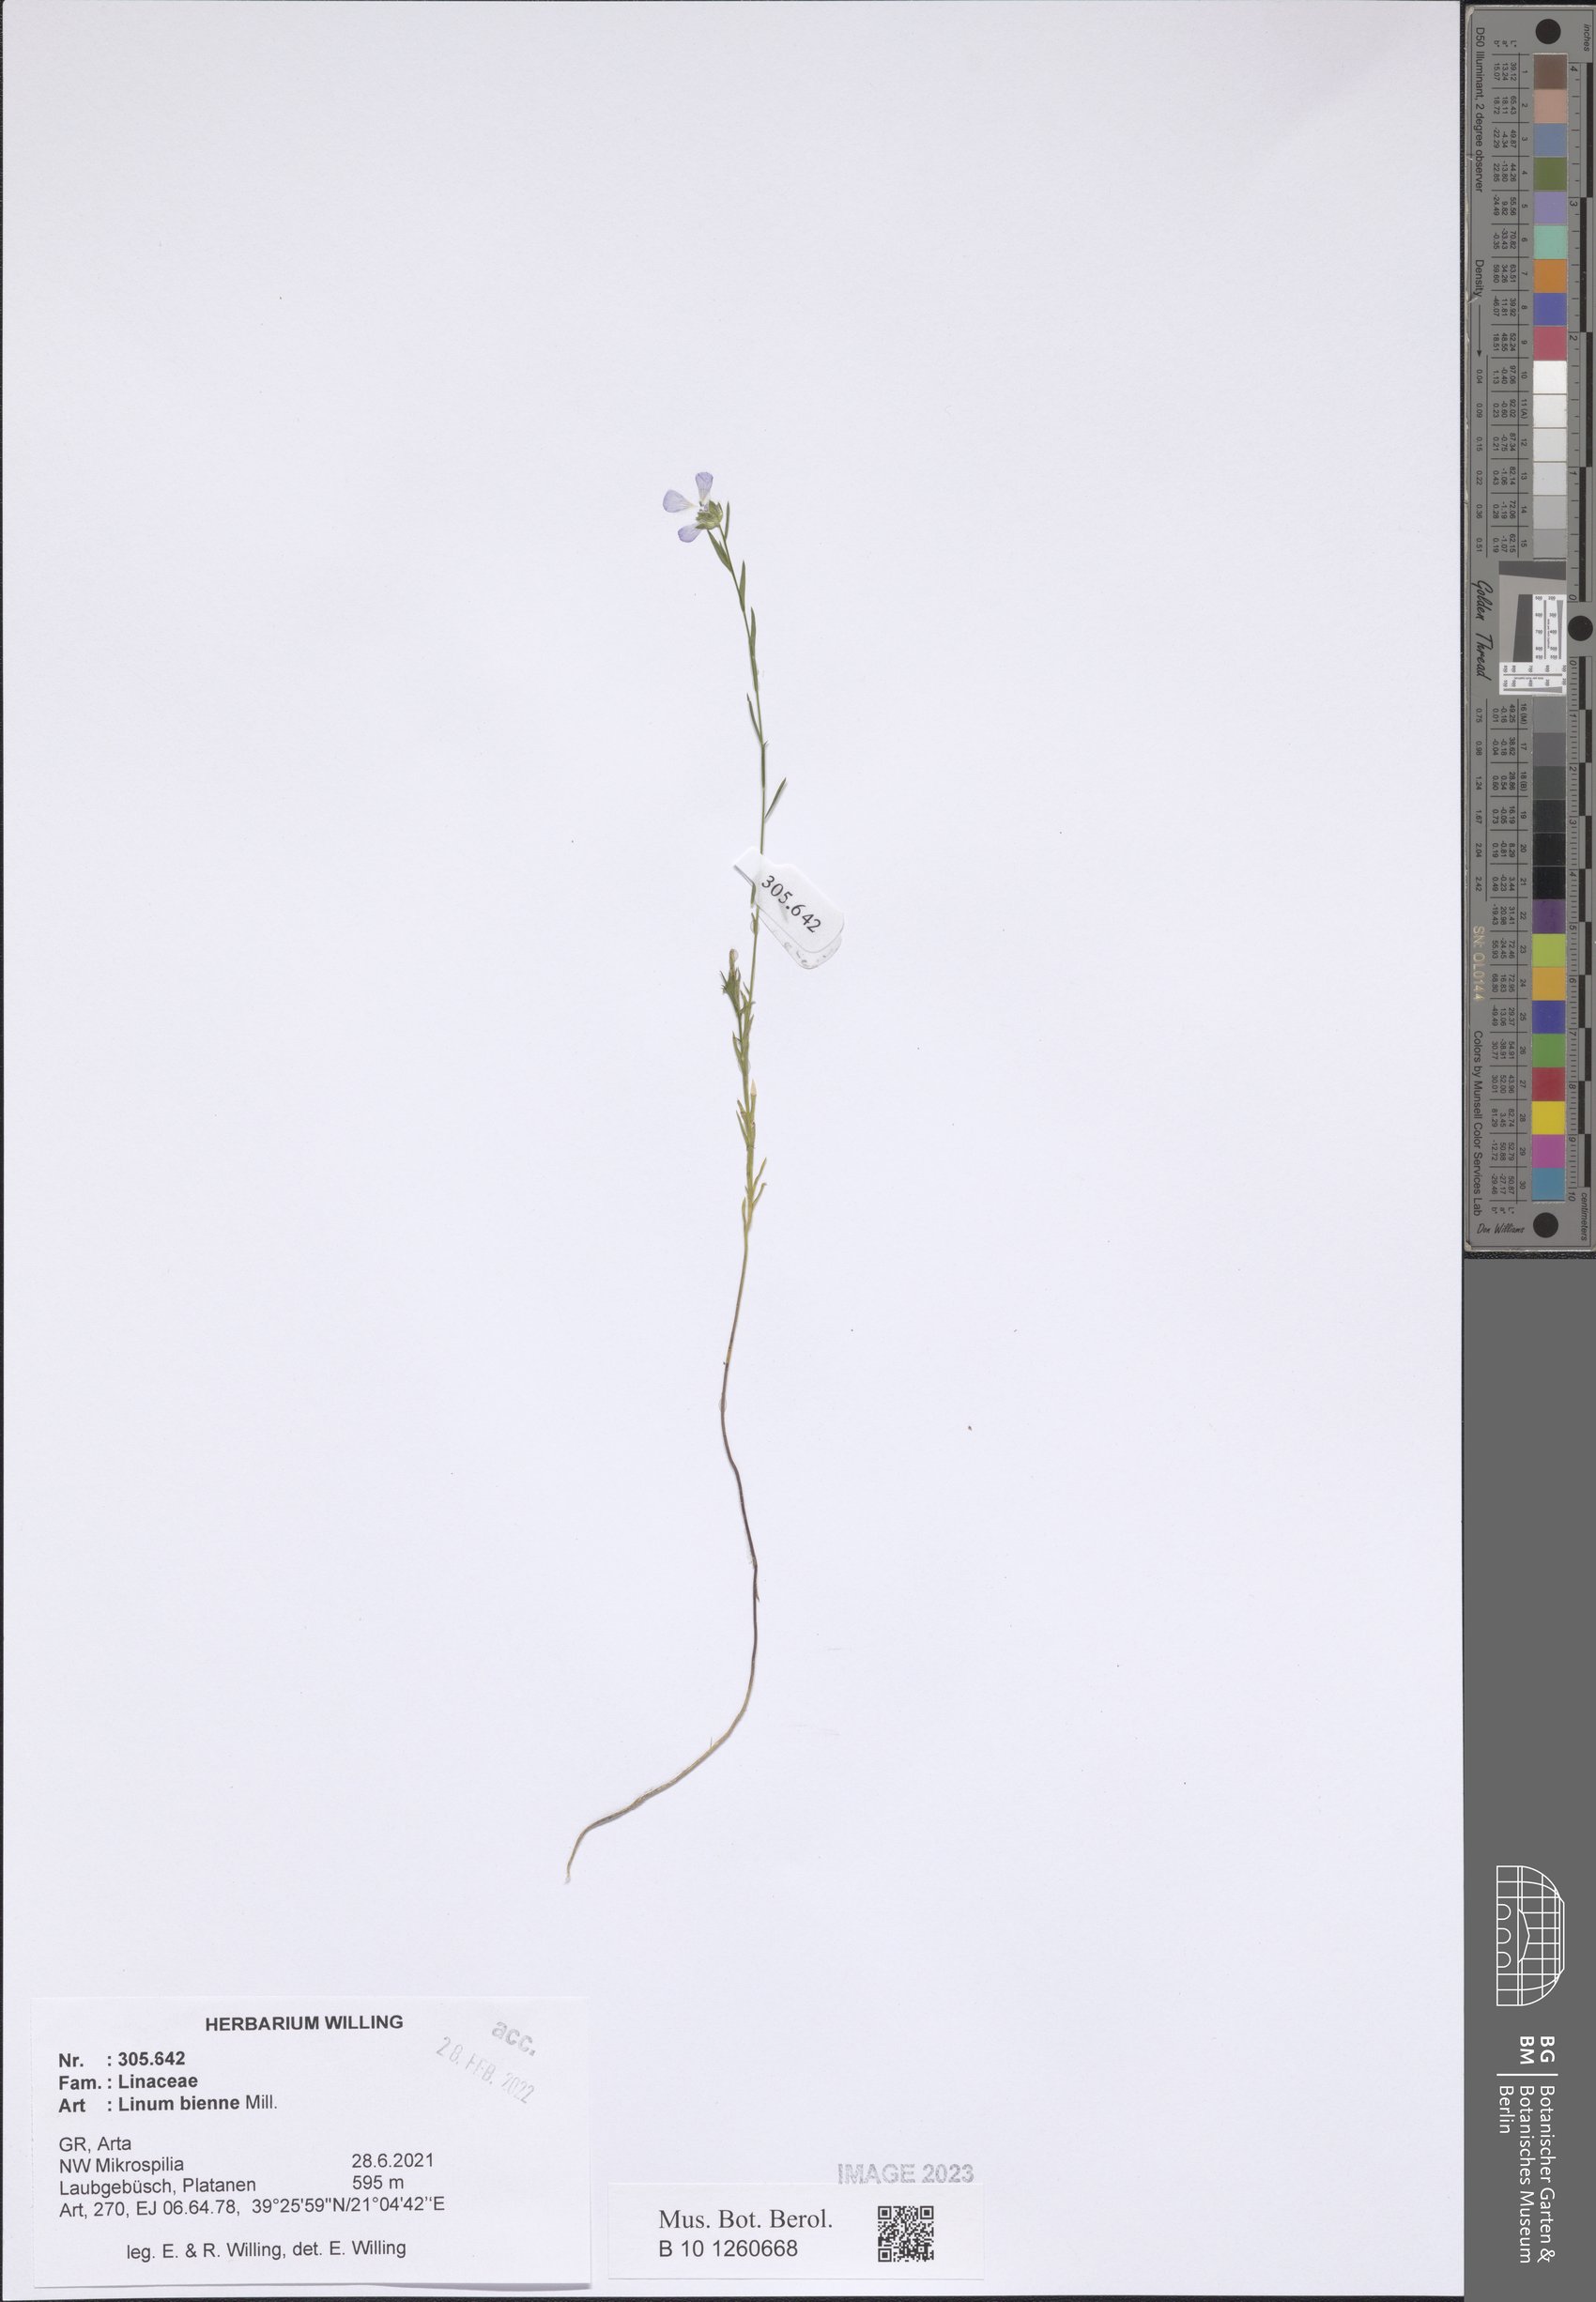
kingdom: Plantae
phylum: Tracheophyta
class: Magnoliopsida
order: Malpighiales
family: Linaceae
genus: Linum
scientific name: Linum bienne
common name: Pale flax
